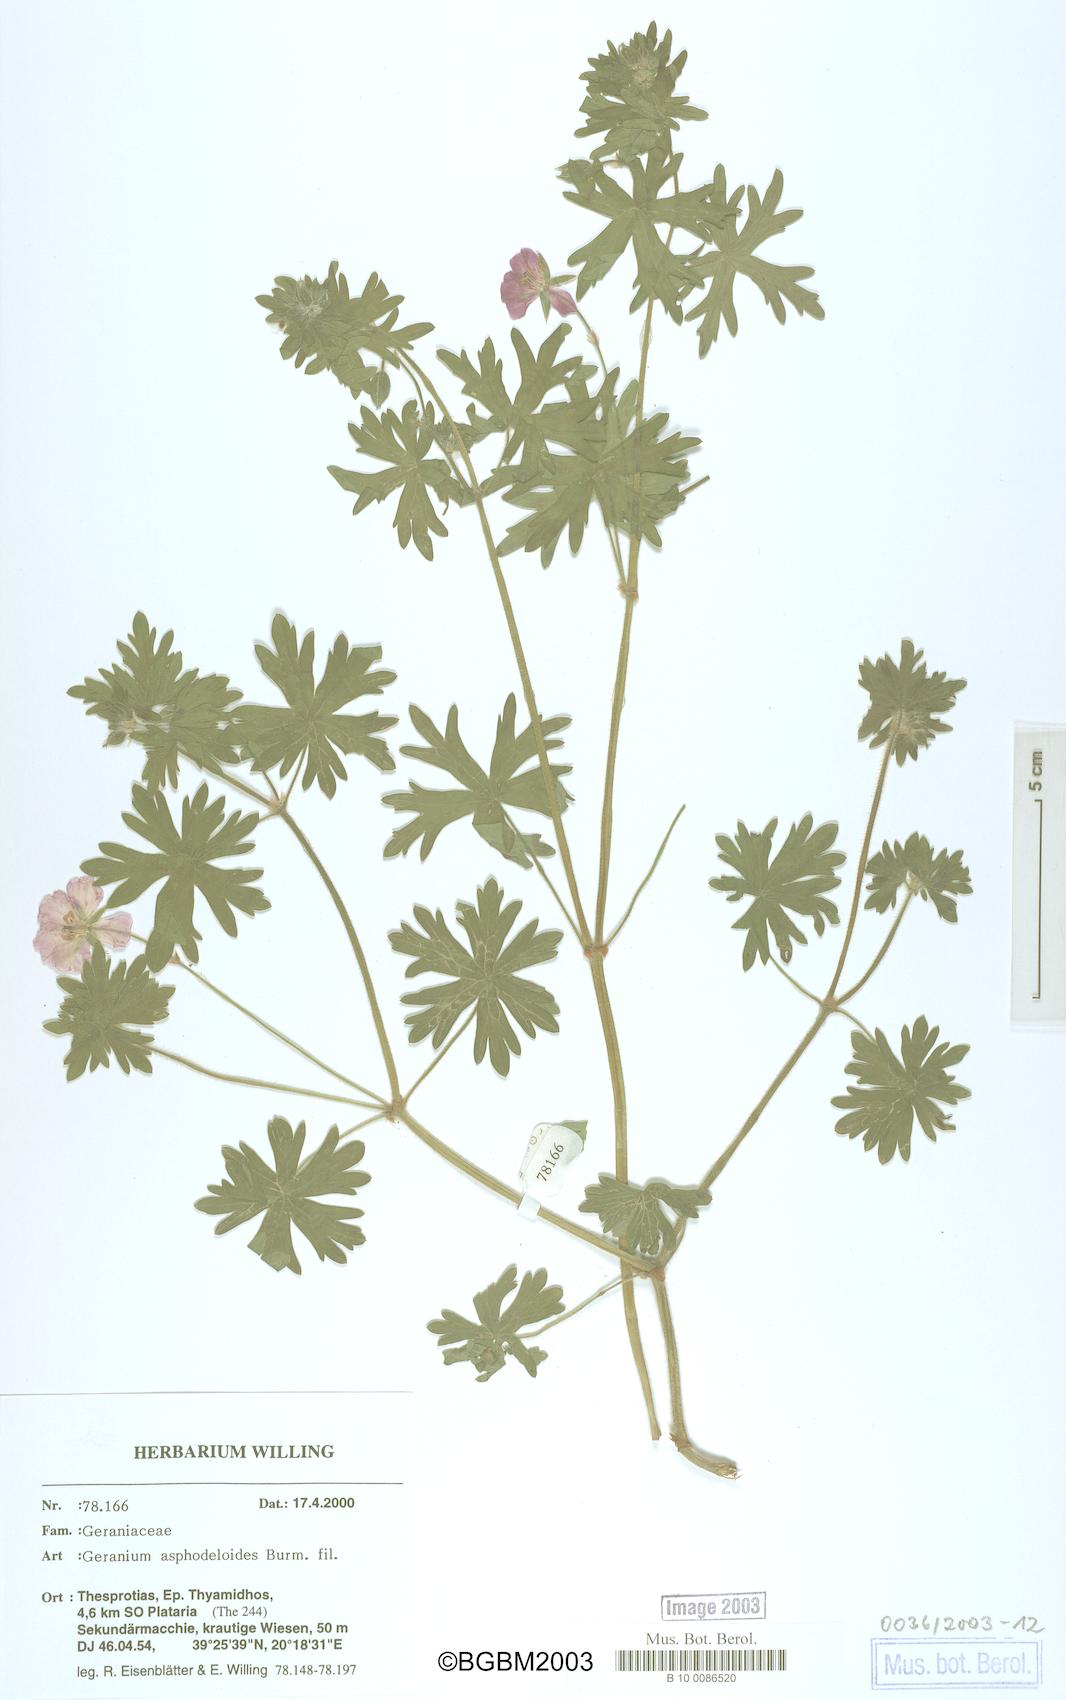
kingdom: Plantae
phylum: Tracheophyta
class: Magnoliopsida
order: Geraniales
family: Geraniaceae
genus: Geranium
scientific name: Geranium asphodeloides
